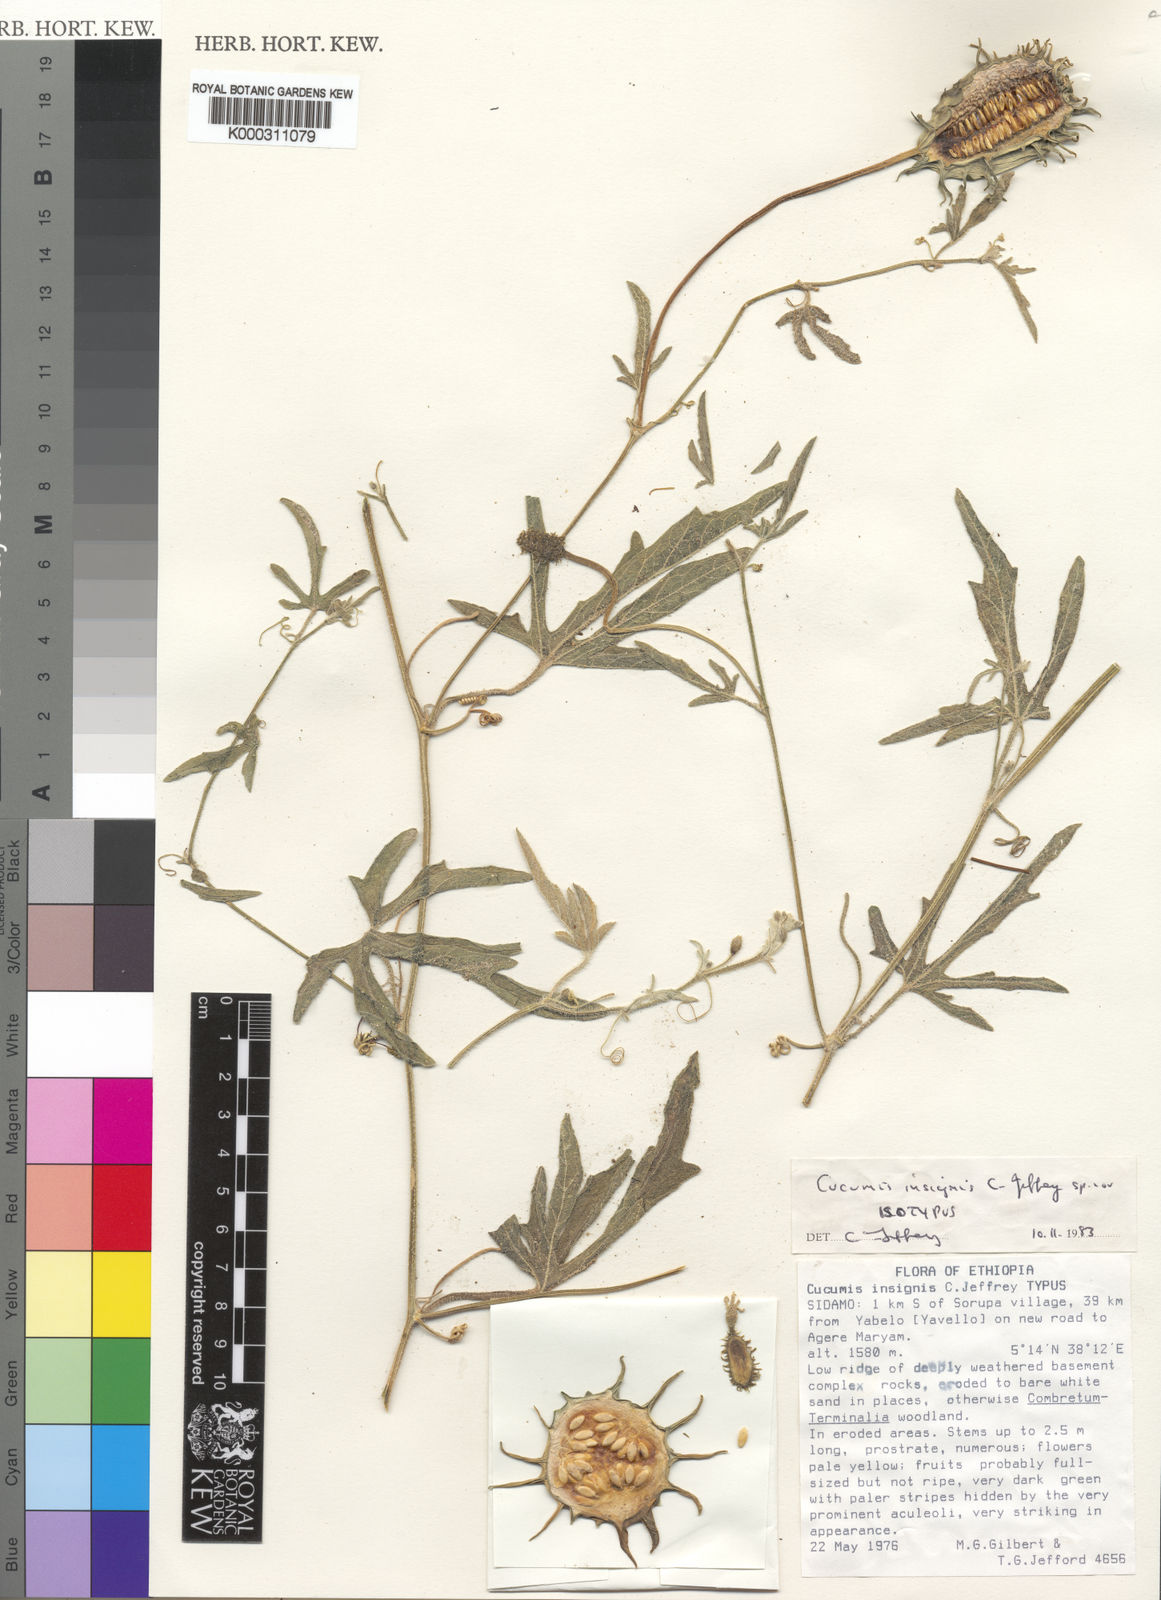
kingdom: Plantae
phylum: Tracheophyta
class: Magnoliopsida
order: Cucurbitales
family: Cucurbitaceae
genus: Cucumis
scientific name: Cucumis insignis
